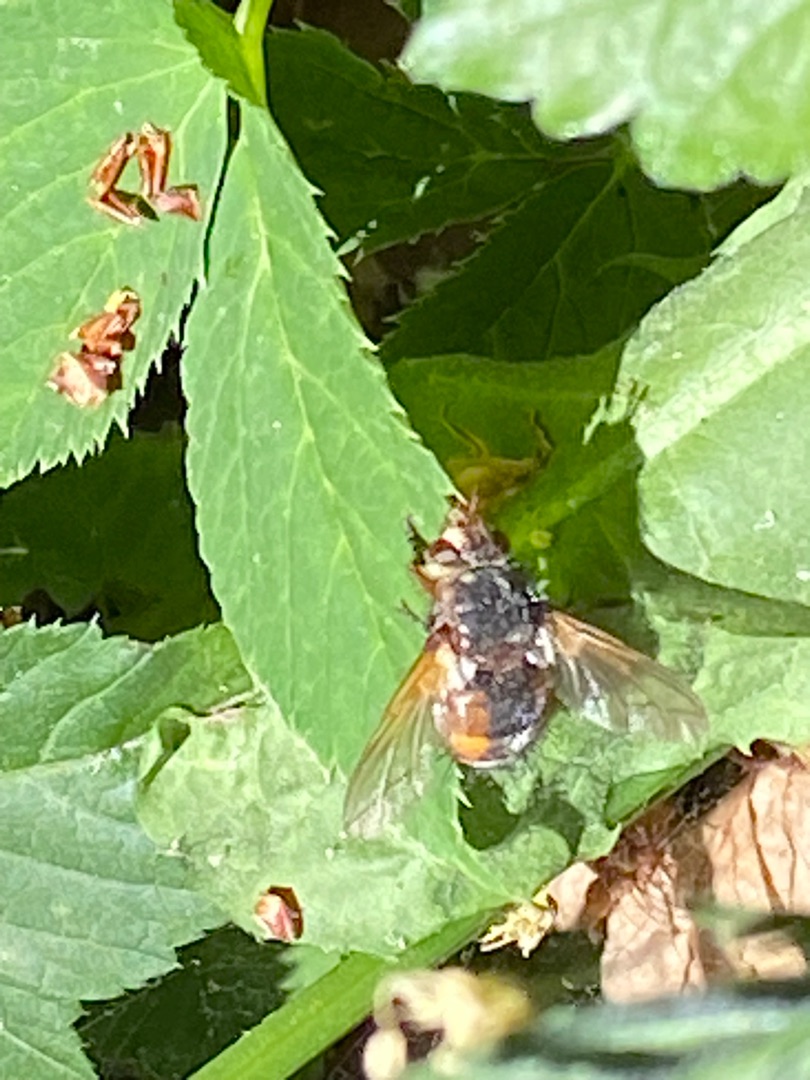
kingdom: Animalia
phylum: Arthropoda
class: Insecta
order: Diptera
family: Tachinidae
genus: Tachina
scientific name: Tachina fera
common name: Mellemfluen oskar
